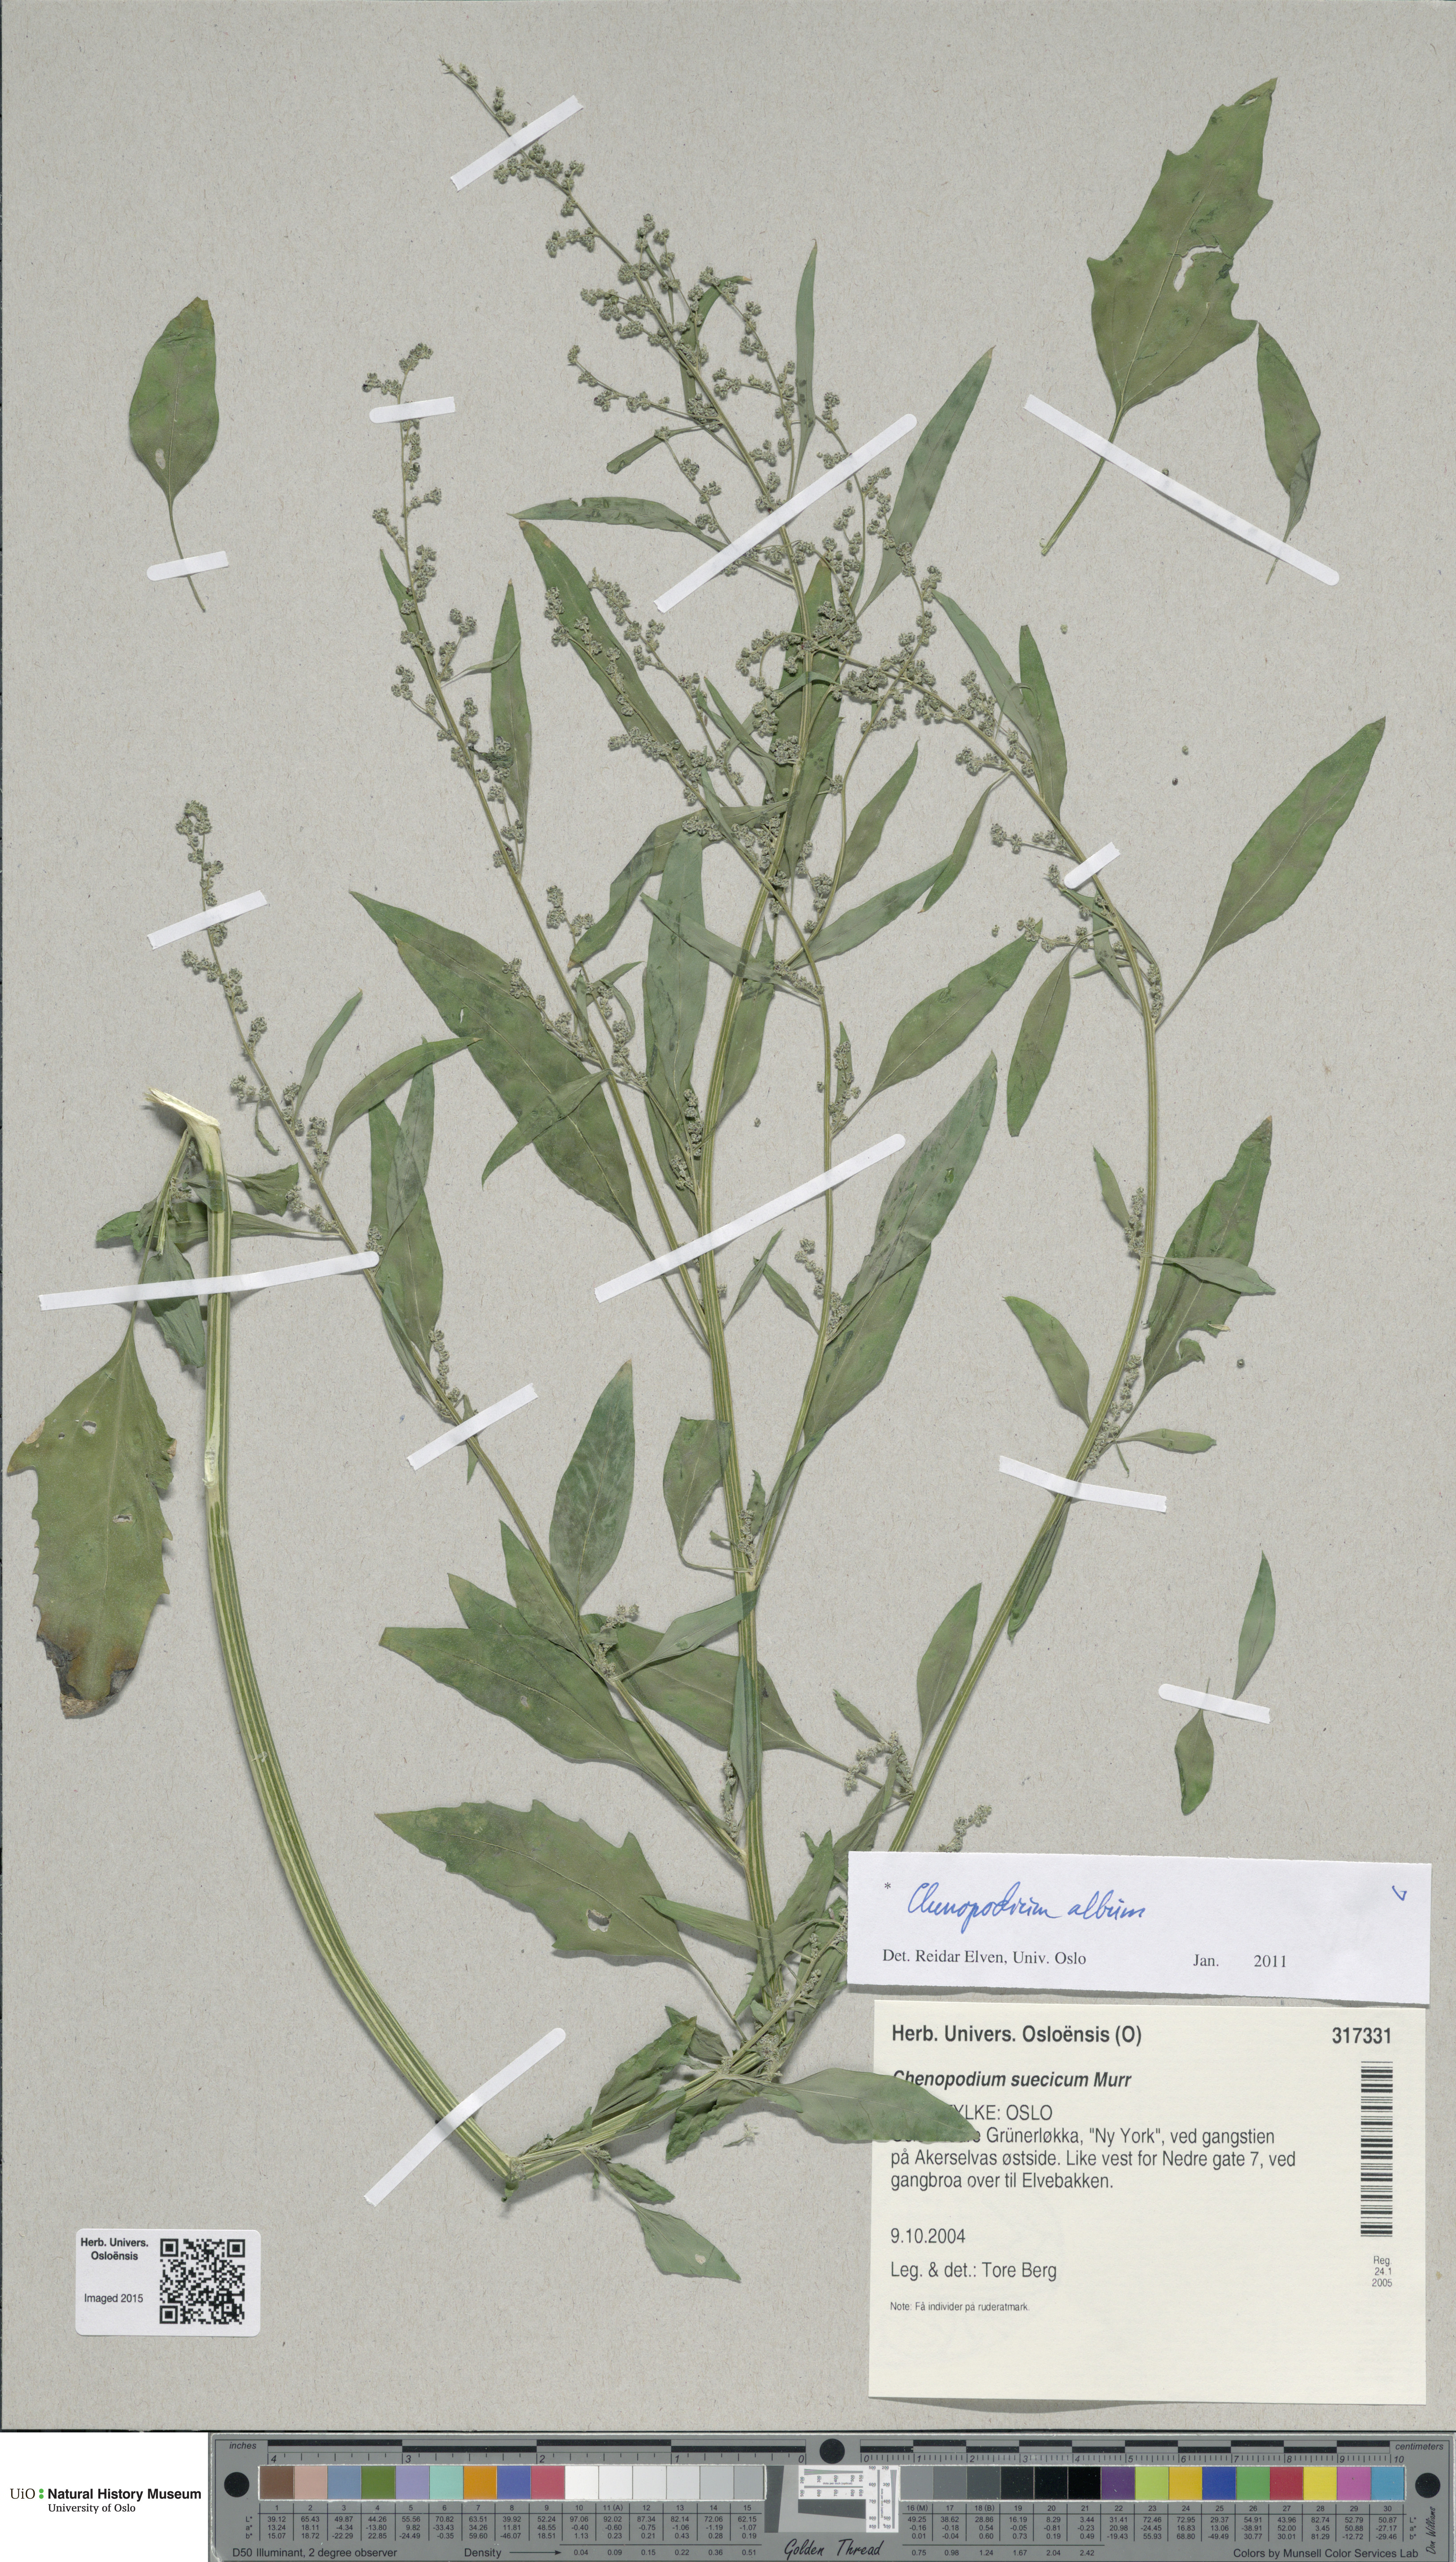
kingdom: Plantae
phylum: Tracheophyta
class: Magnoliopsida
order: Caryophyllales
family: Amaranthaceae
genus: Chenopodium
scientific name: Chenopodium album
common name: Fat-hen
